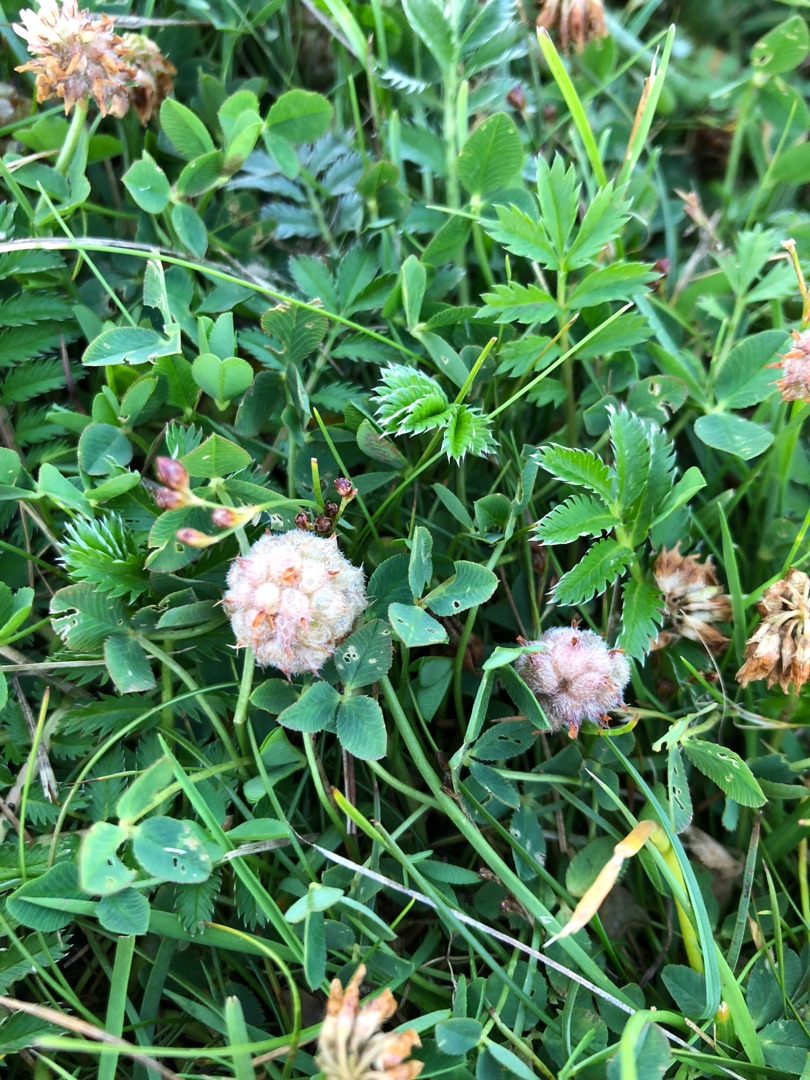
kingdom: Plantae
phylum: Tracheophyta
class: Magnoliopsida
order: Fabales
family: Fabaceae
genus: Trifolium
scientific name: Trifolium fragiferum
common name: Jordbær-kløver
